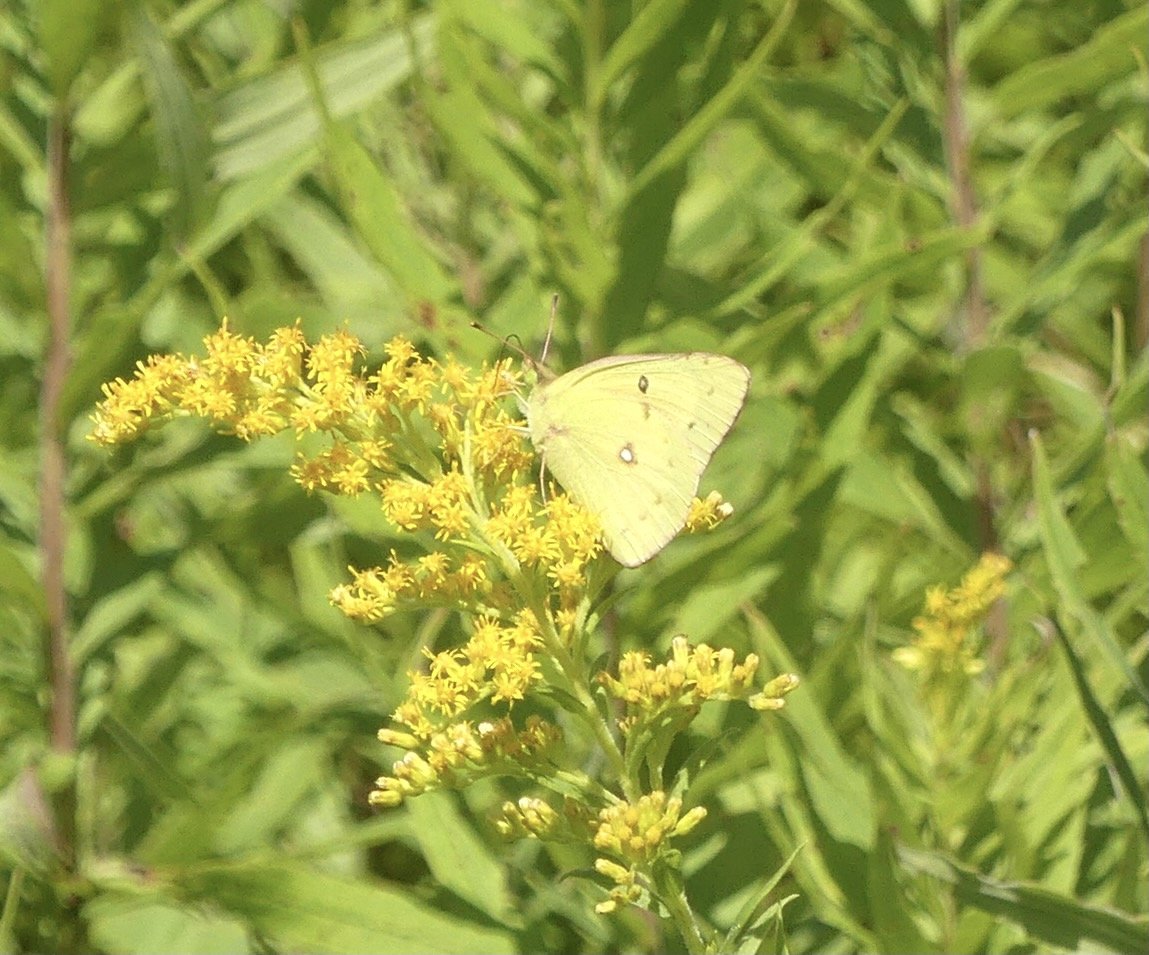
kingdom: Animalia
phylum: Arthropoda
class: Insecta
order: Lepidoptera
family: Pieridae
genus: Colias
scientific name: Colias eurytheme
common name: Orange Sulphur
